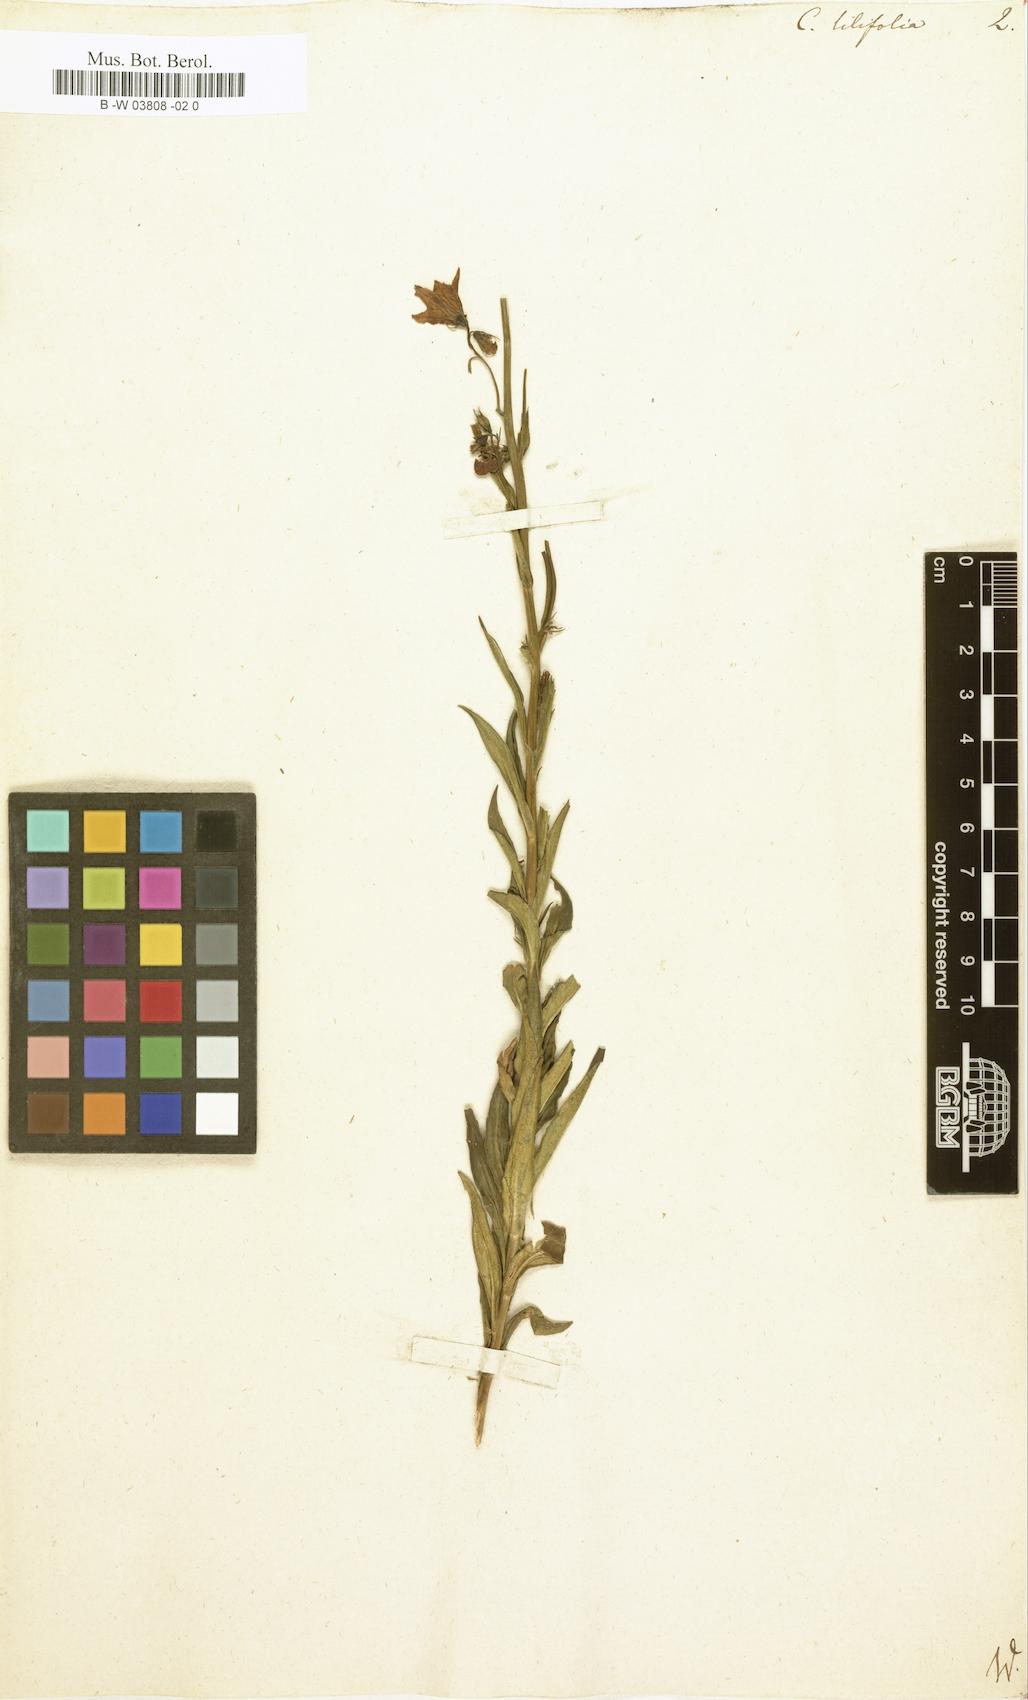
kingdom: Plantae
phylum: Tracheophyta
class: Magnoliopsida
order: Asterales
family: Campanulaceae
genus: Campanula
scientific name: Campanula lilifolia
